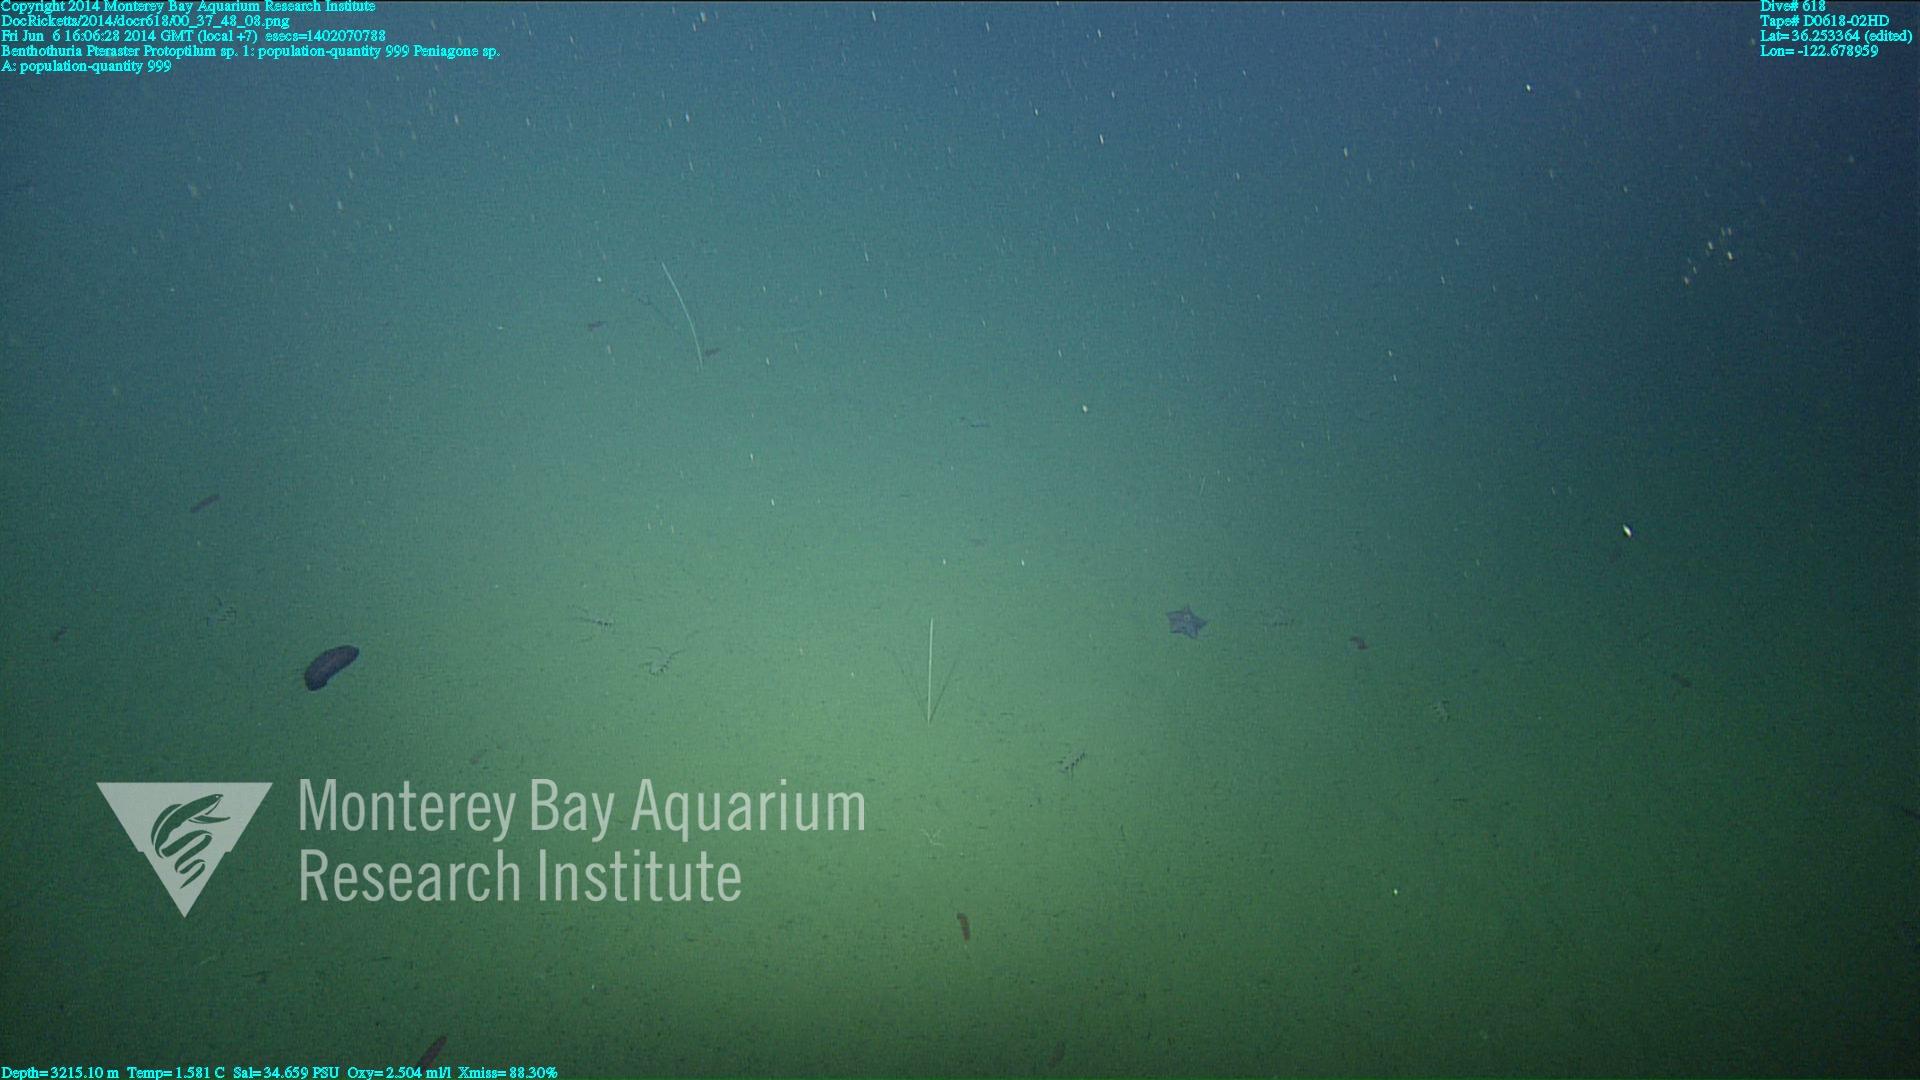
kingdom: Animalia
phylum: Cnidaria
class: Anthozoa
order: Scleralcyonacea
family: Protoptilidae
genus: Protoptilum
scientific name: Protoptilum
